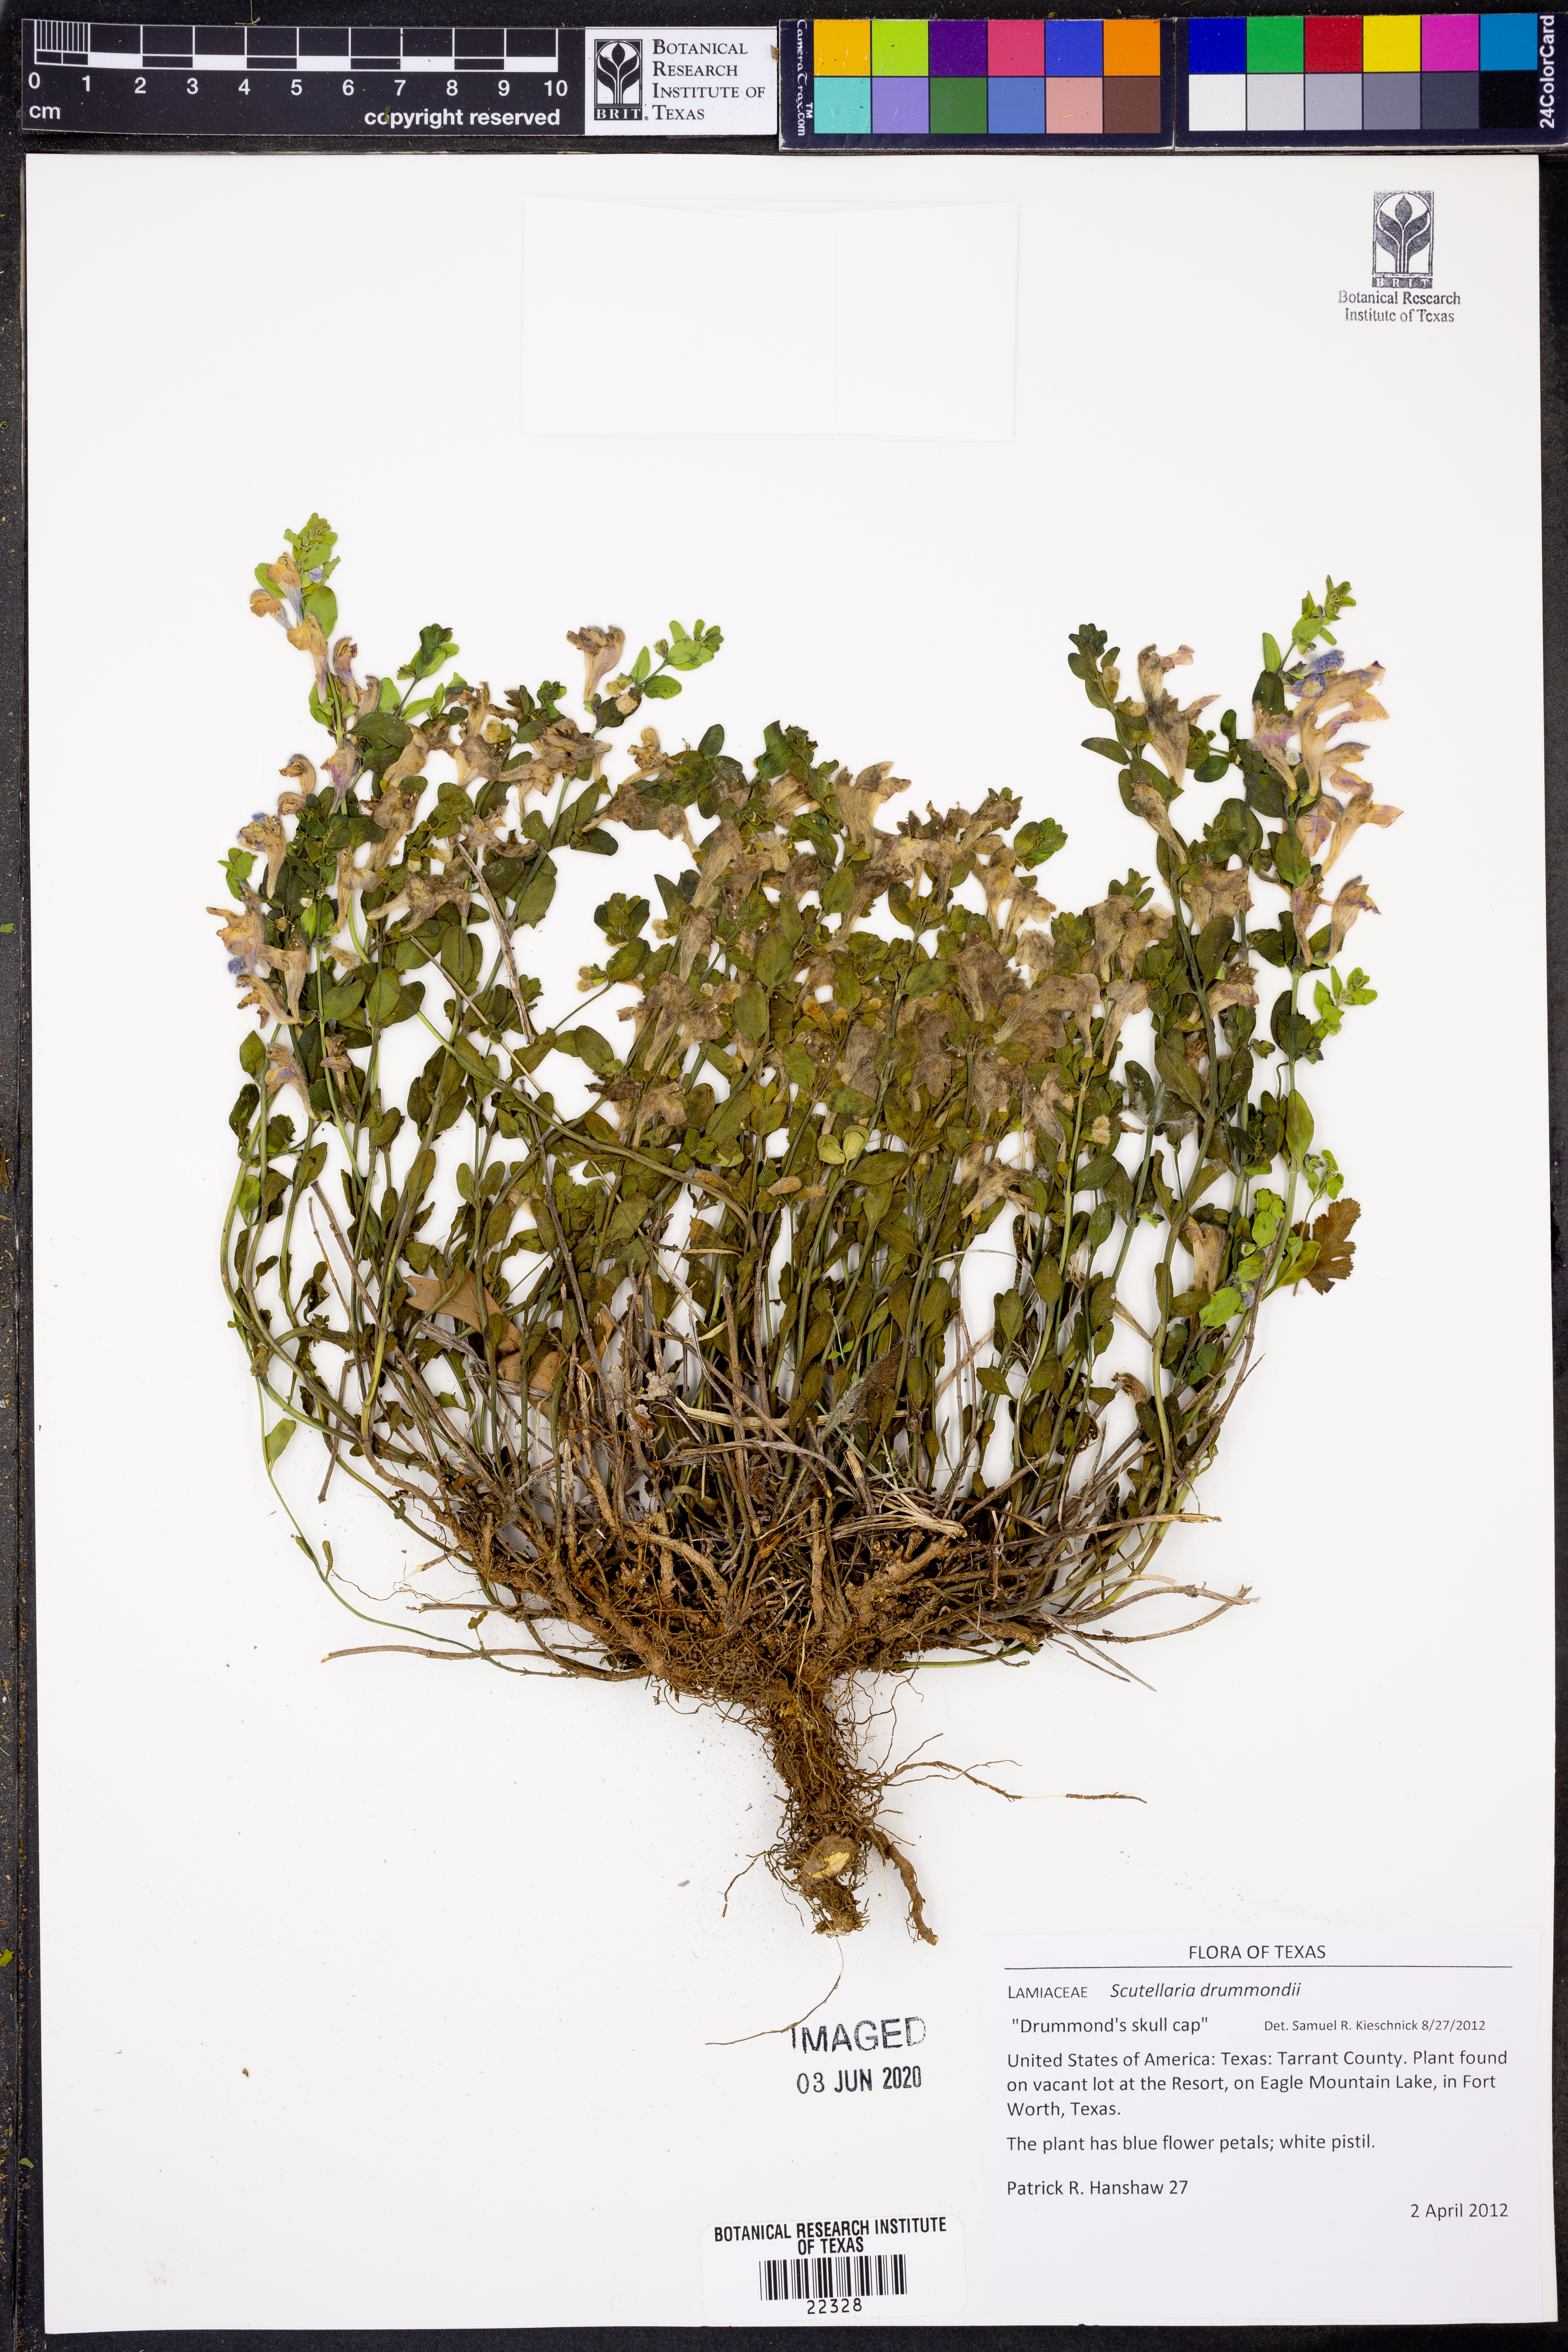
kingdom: Plantae
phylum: Tracheophyta
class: Magnoliopsida
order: Lamiales
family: Lamiaceae
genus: Scutellaria
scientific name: Scutellaria drummondii
